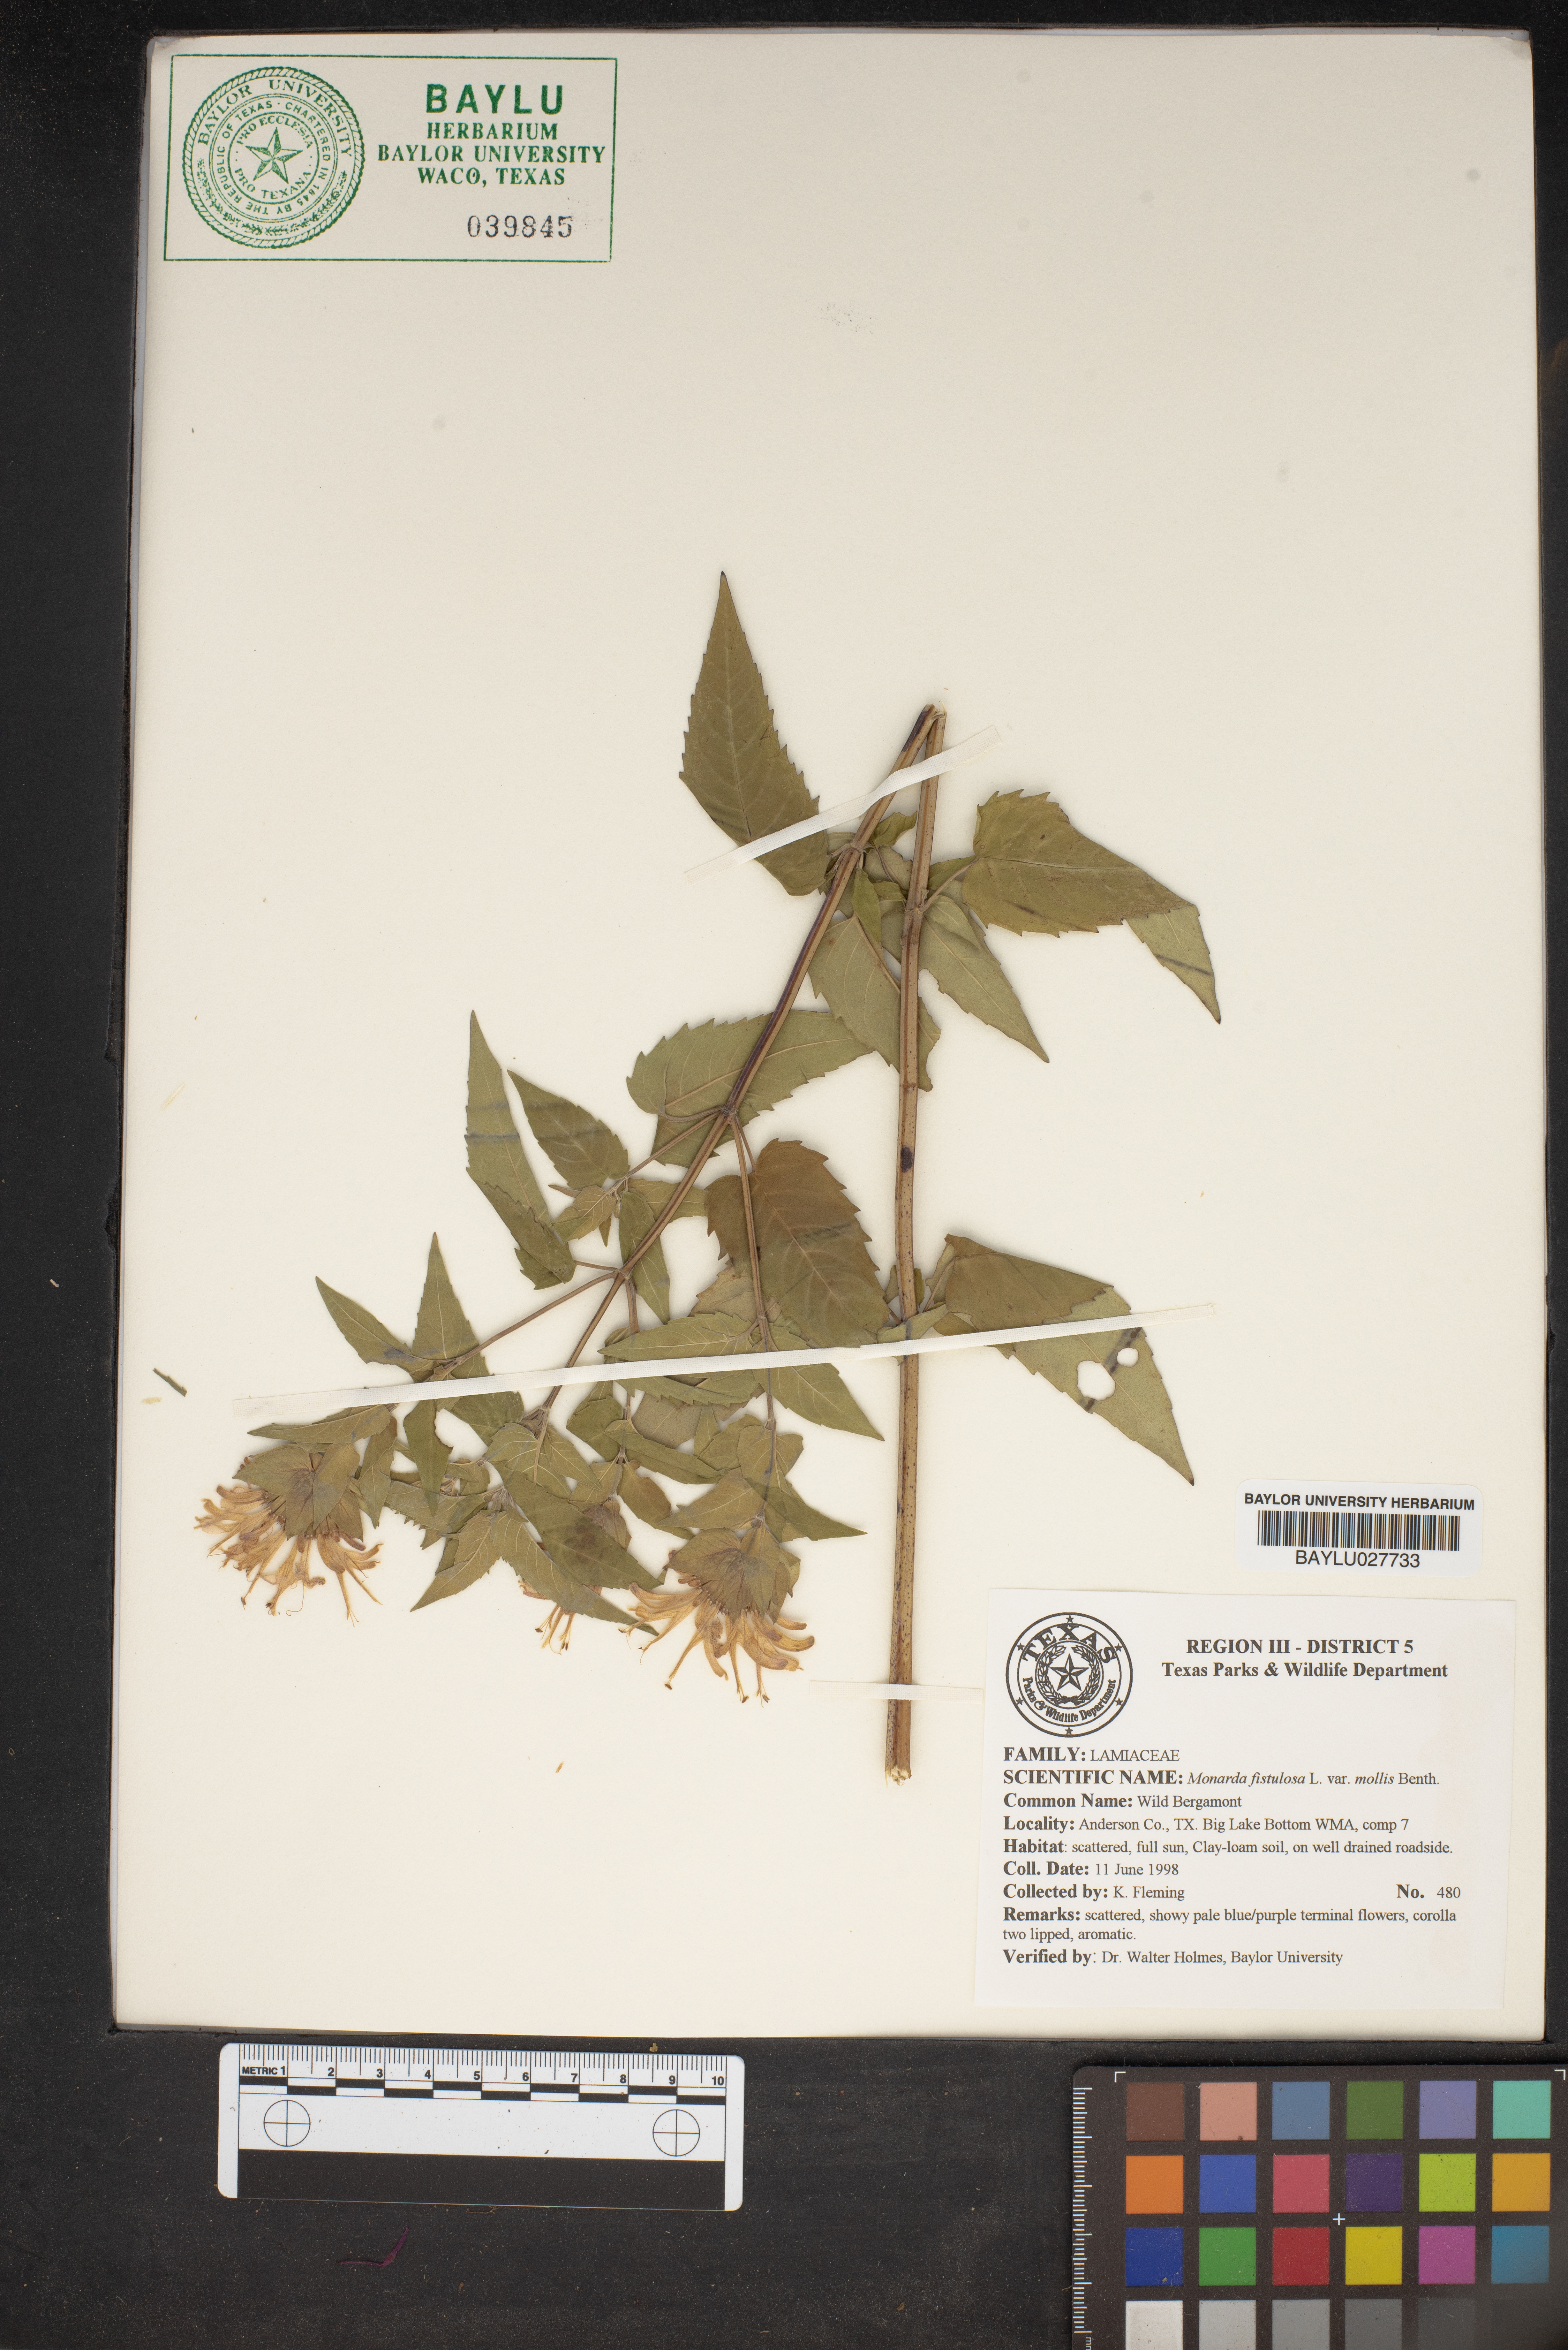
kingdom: Plantae
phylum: Tracheophyta
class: Magnoliopsida
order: Lamiales
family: Lamiaceae
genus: Monarda
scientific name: Monarda fistulosa
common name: Purple beebalm
